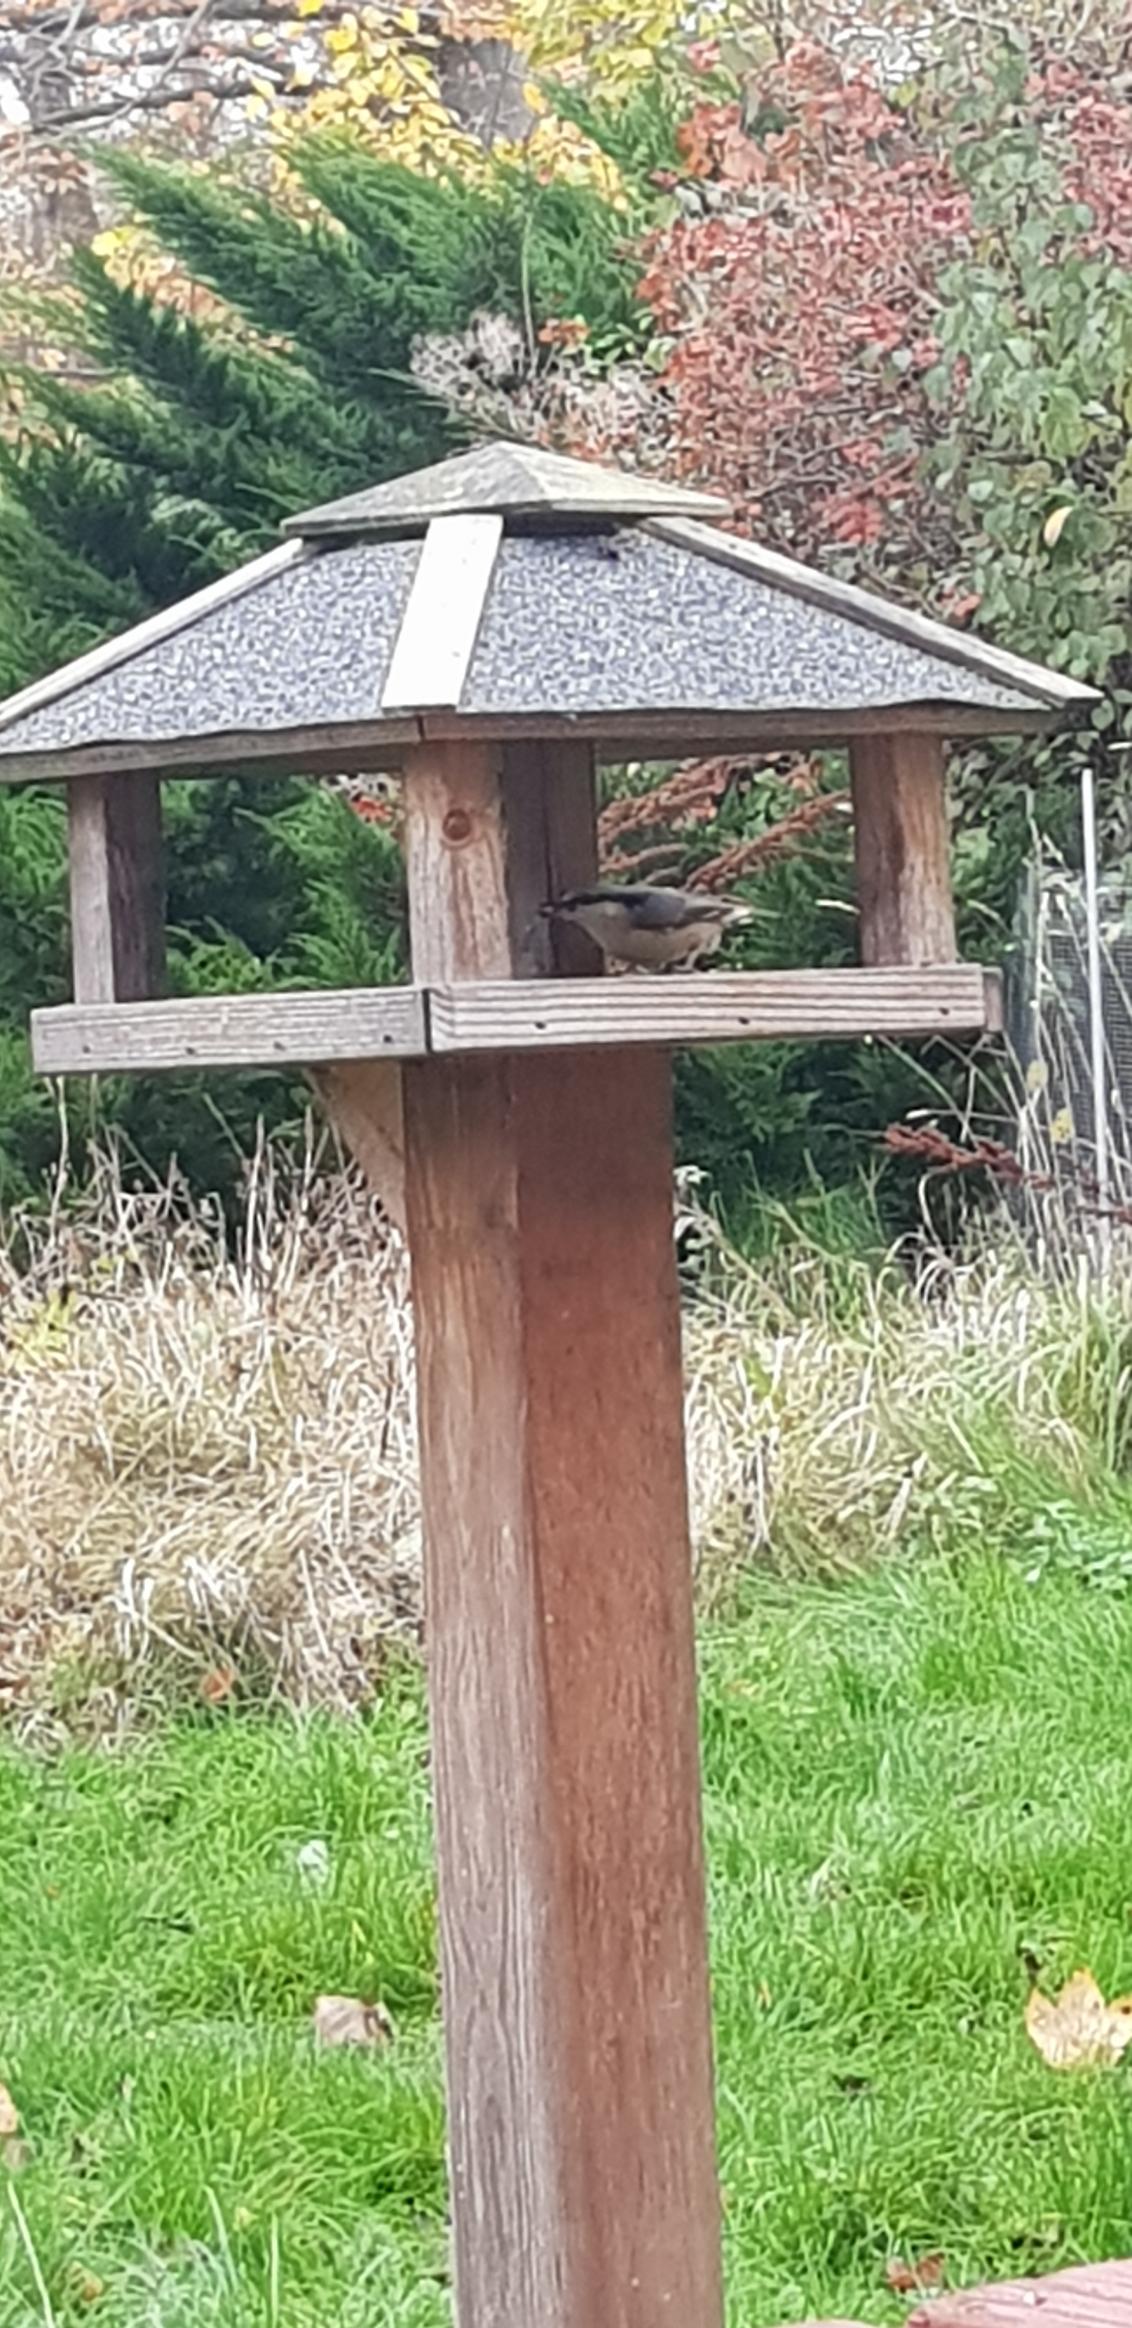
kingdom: Animalia
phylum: Chordata
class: Aves
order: Passeriformes
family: Sittidae
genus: Sitta
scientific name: Sitta europaea
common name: Spætmejse
